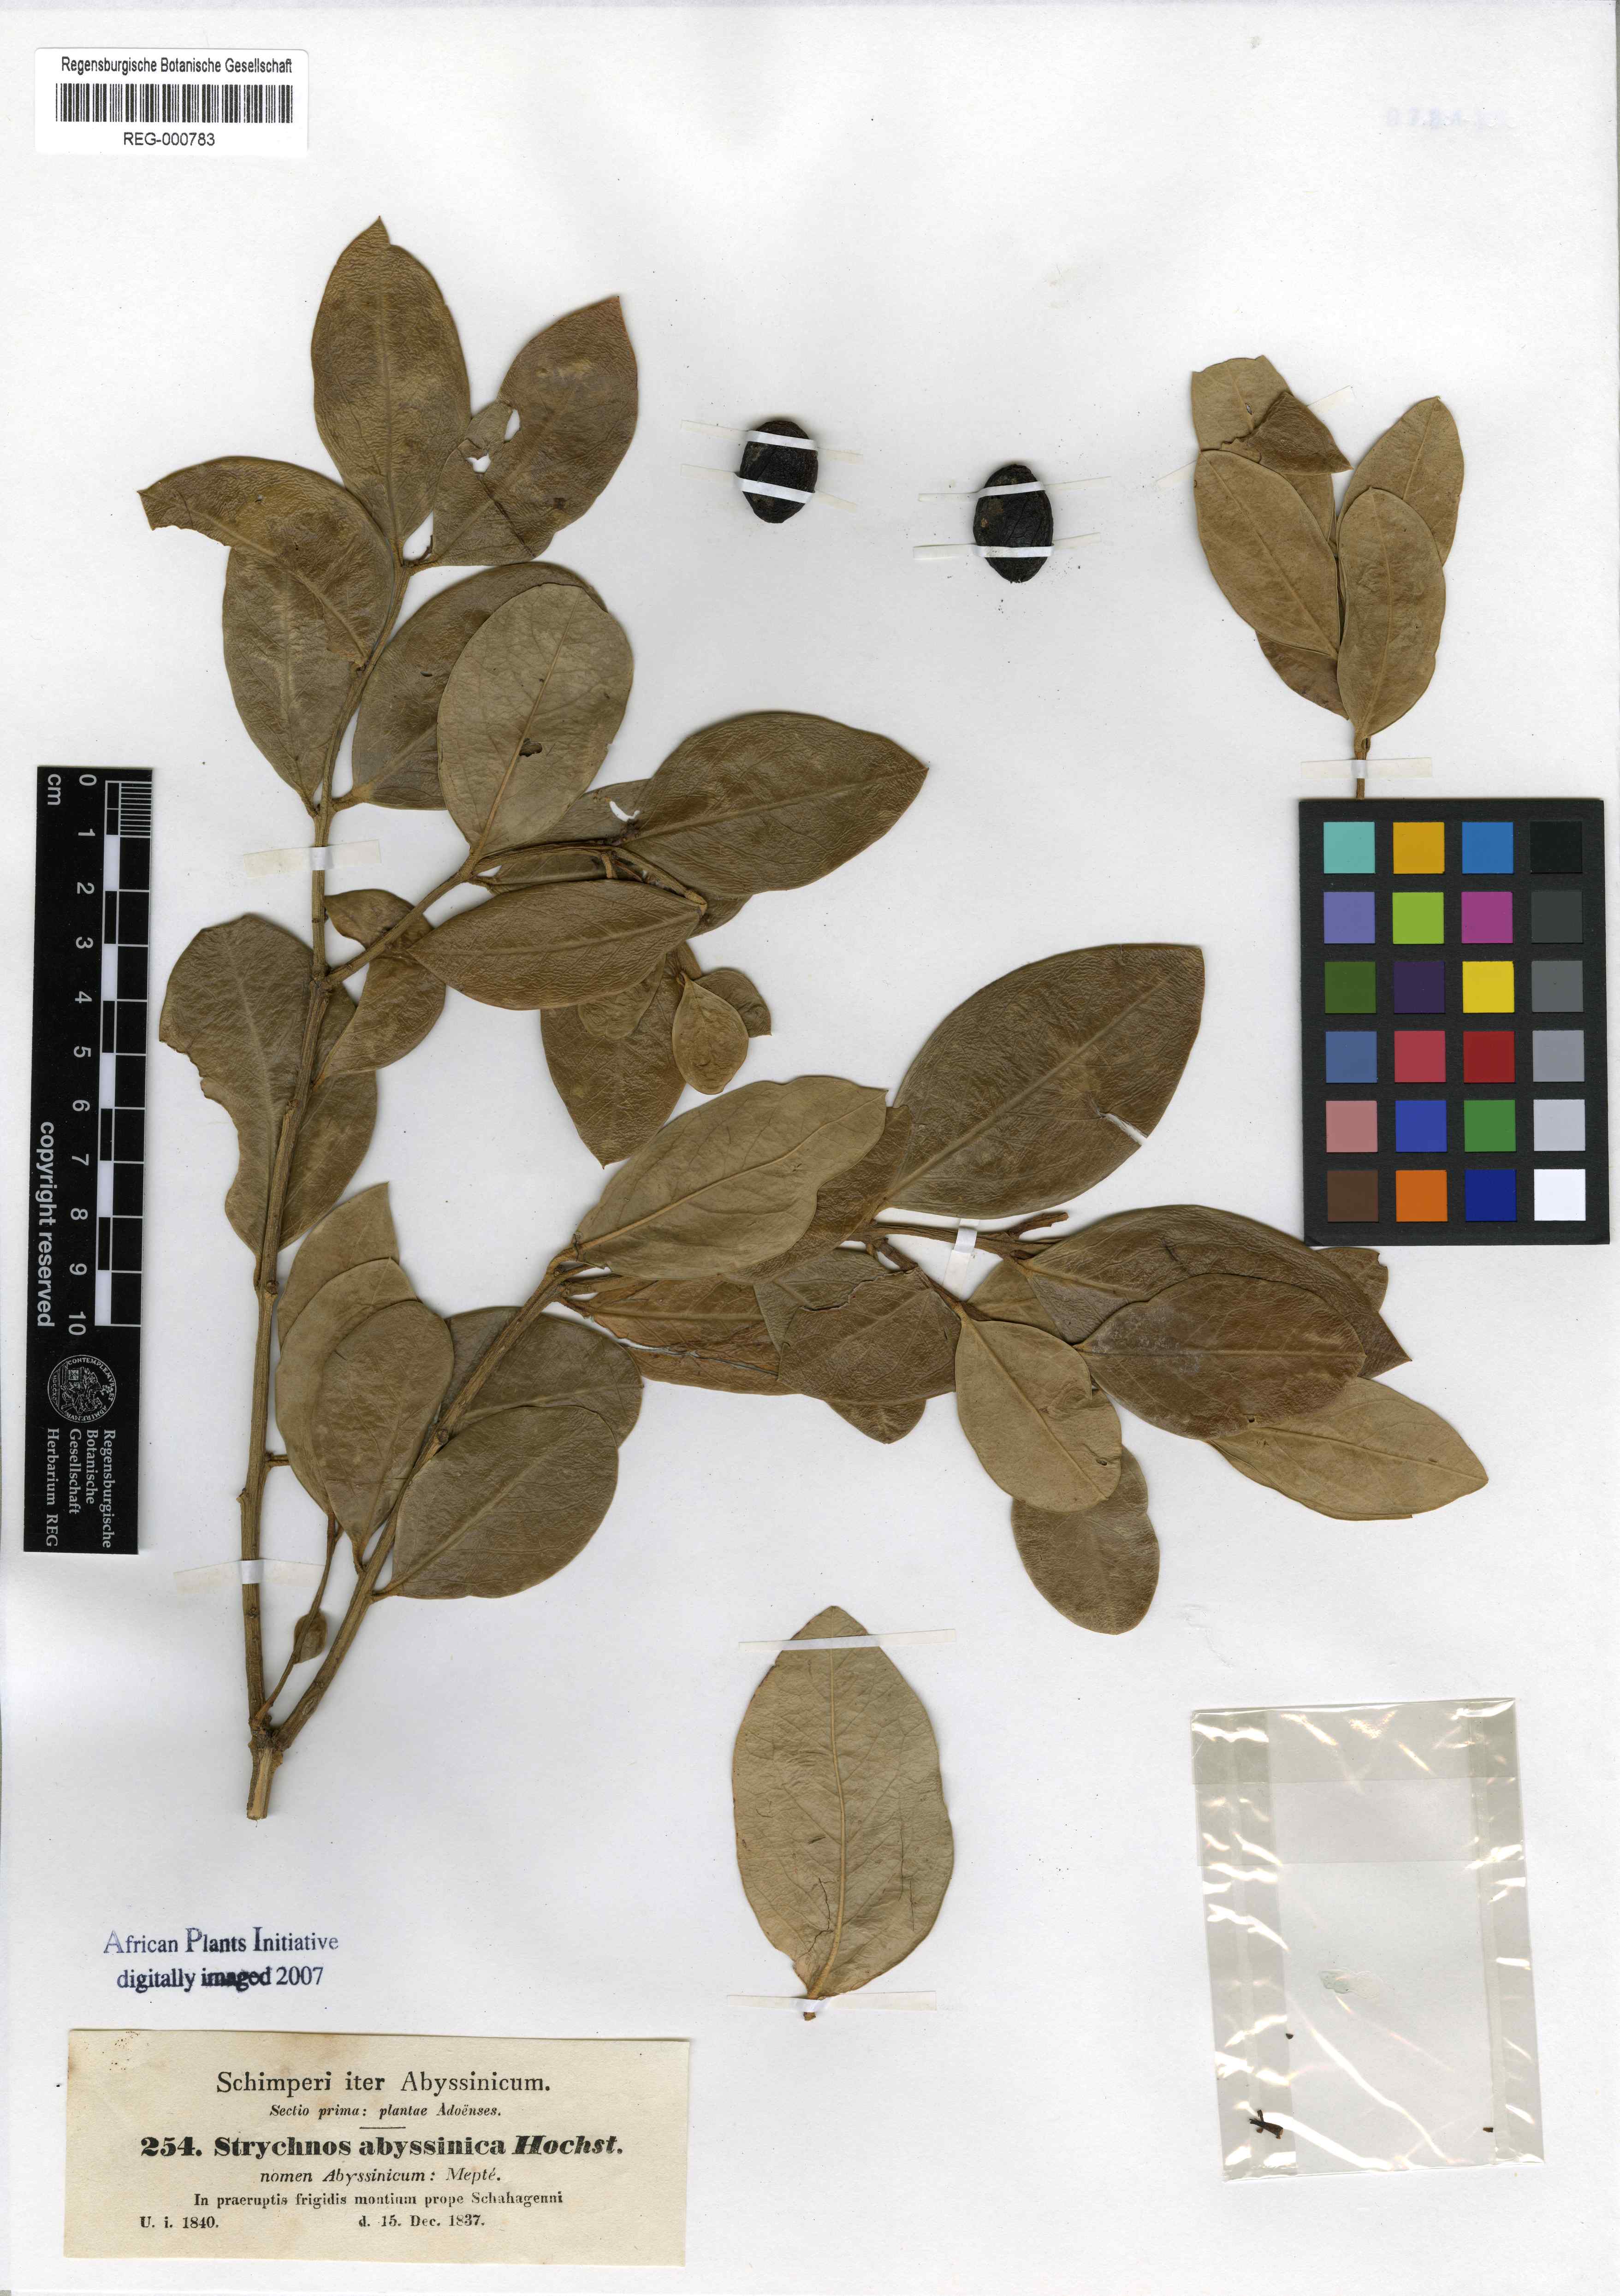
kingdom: Plantae
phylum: Tracheophyta
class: Magnoliopsida
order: Gentianales
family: Apocynaceae
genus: Acokanthera
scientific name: Acokanthera schimperi
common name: Arrow-poison-tree
